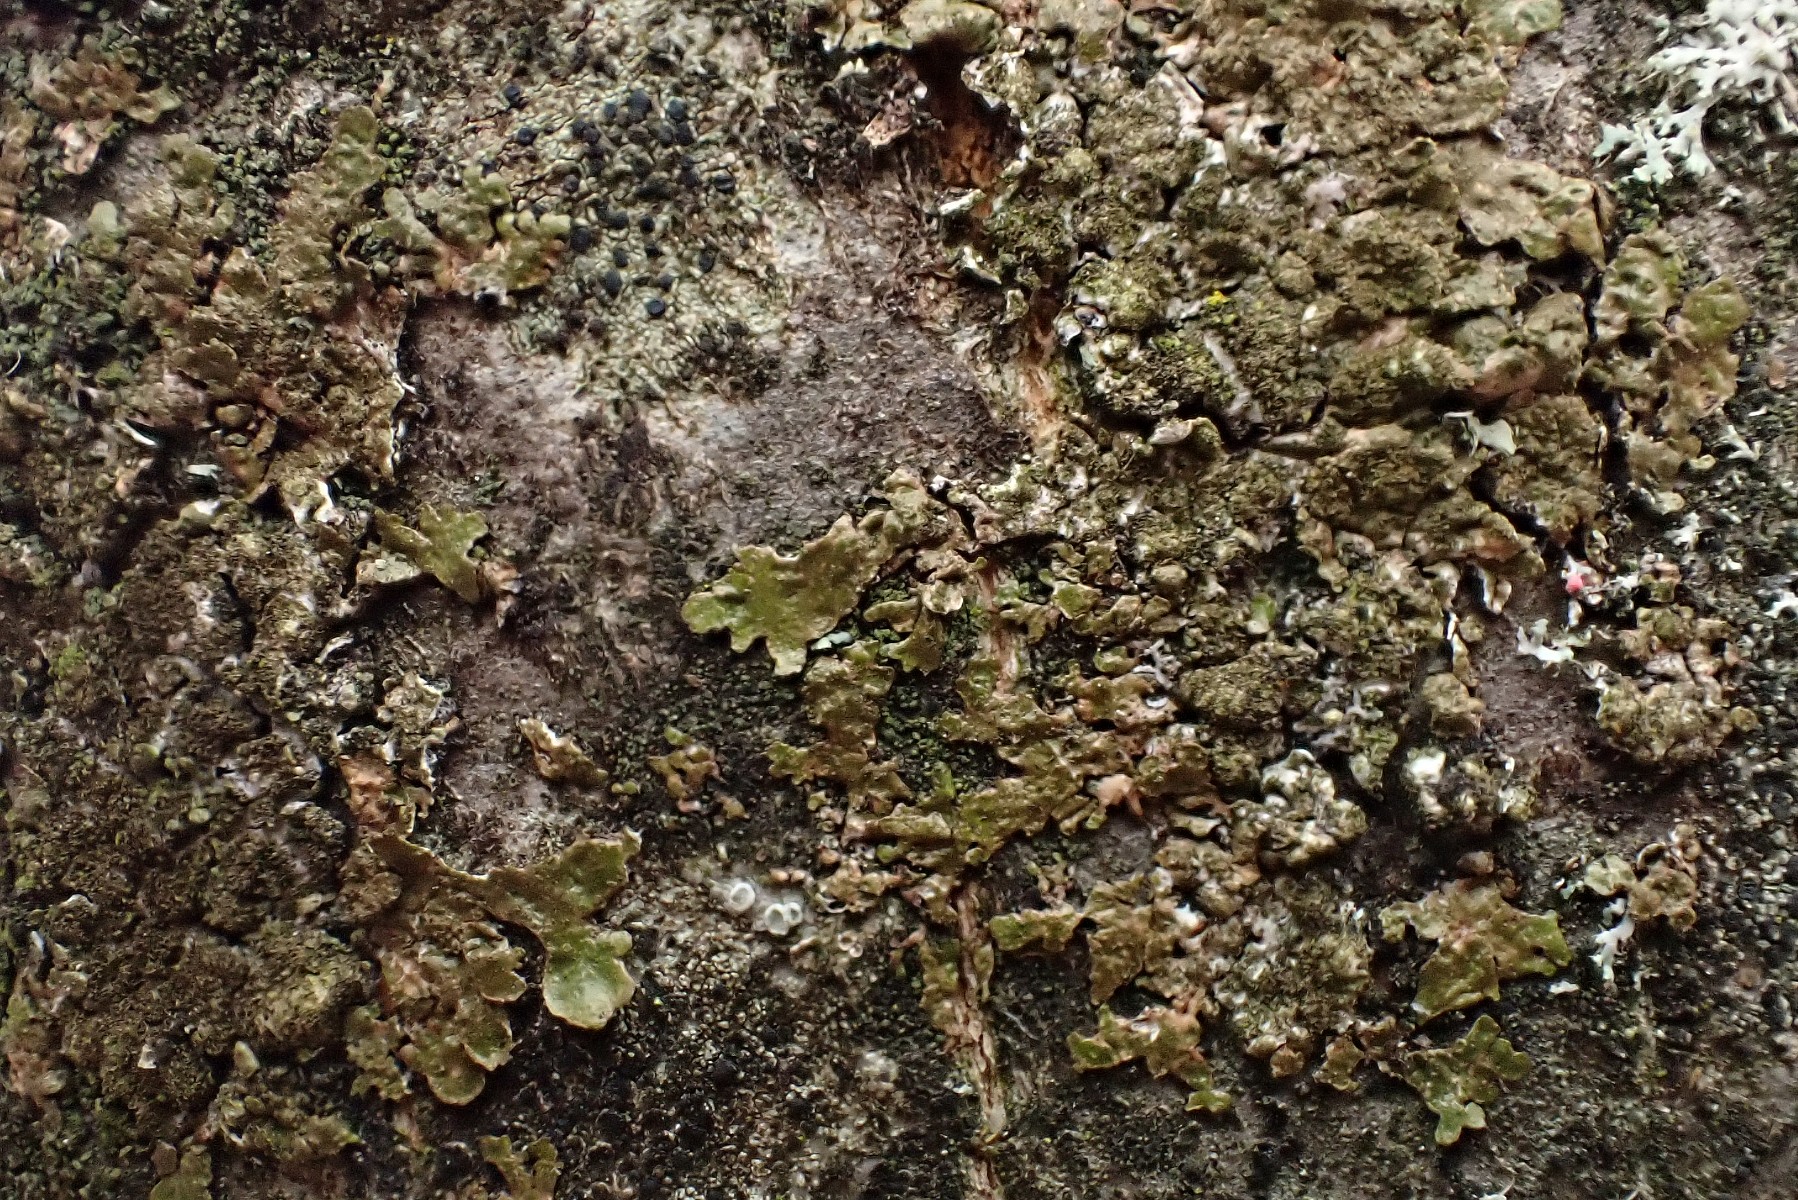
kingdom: Fungi
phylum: Ascomycota
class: Lecanoromycetes
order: Lecanorales
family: Parmeliaceae
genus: Melanelixia
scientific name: Melanelixia glabratula
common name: glinsende skållav
